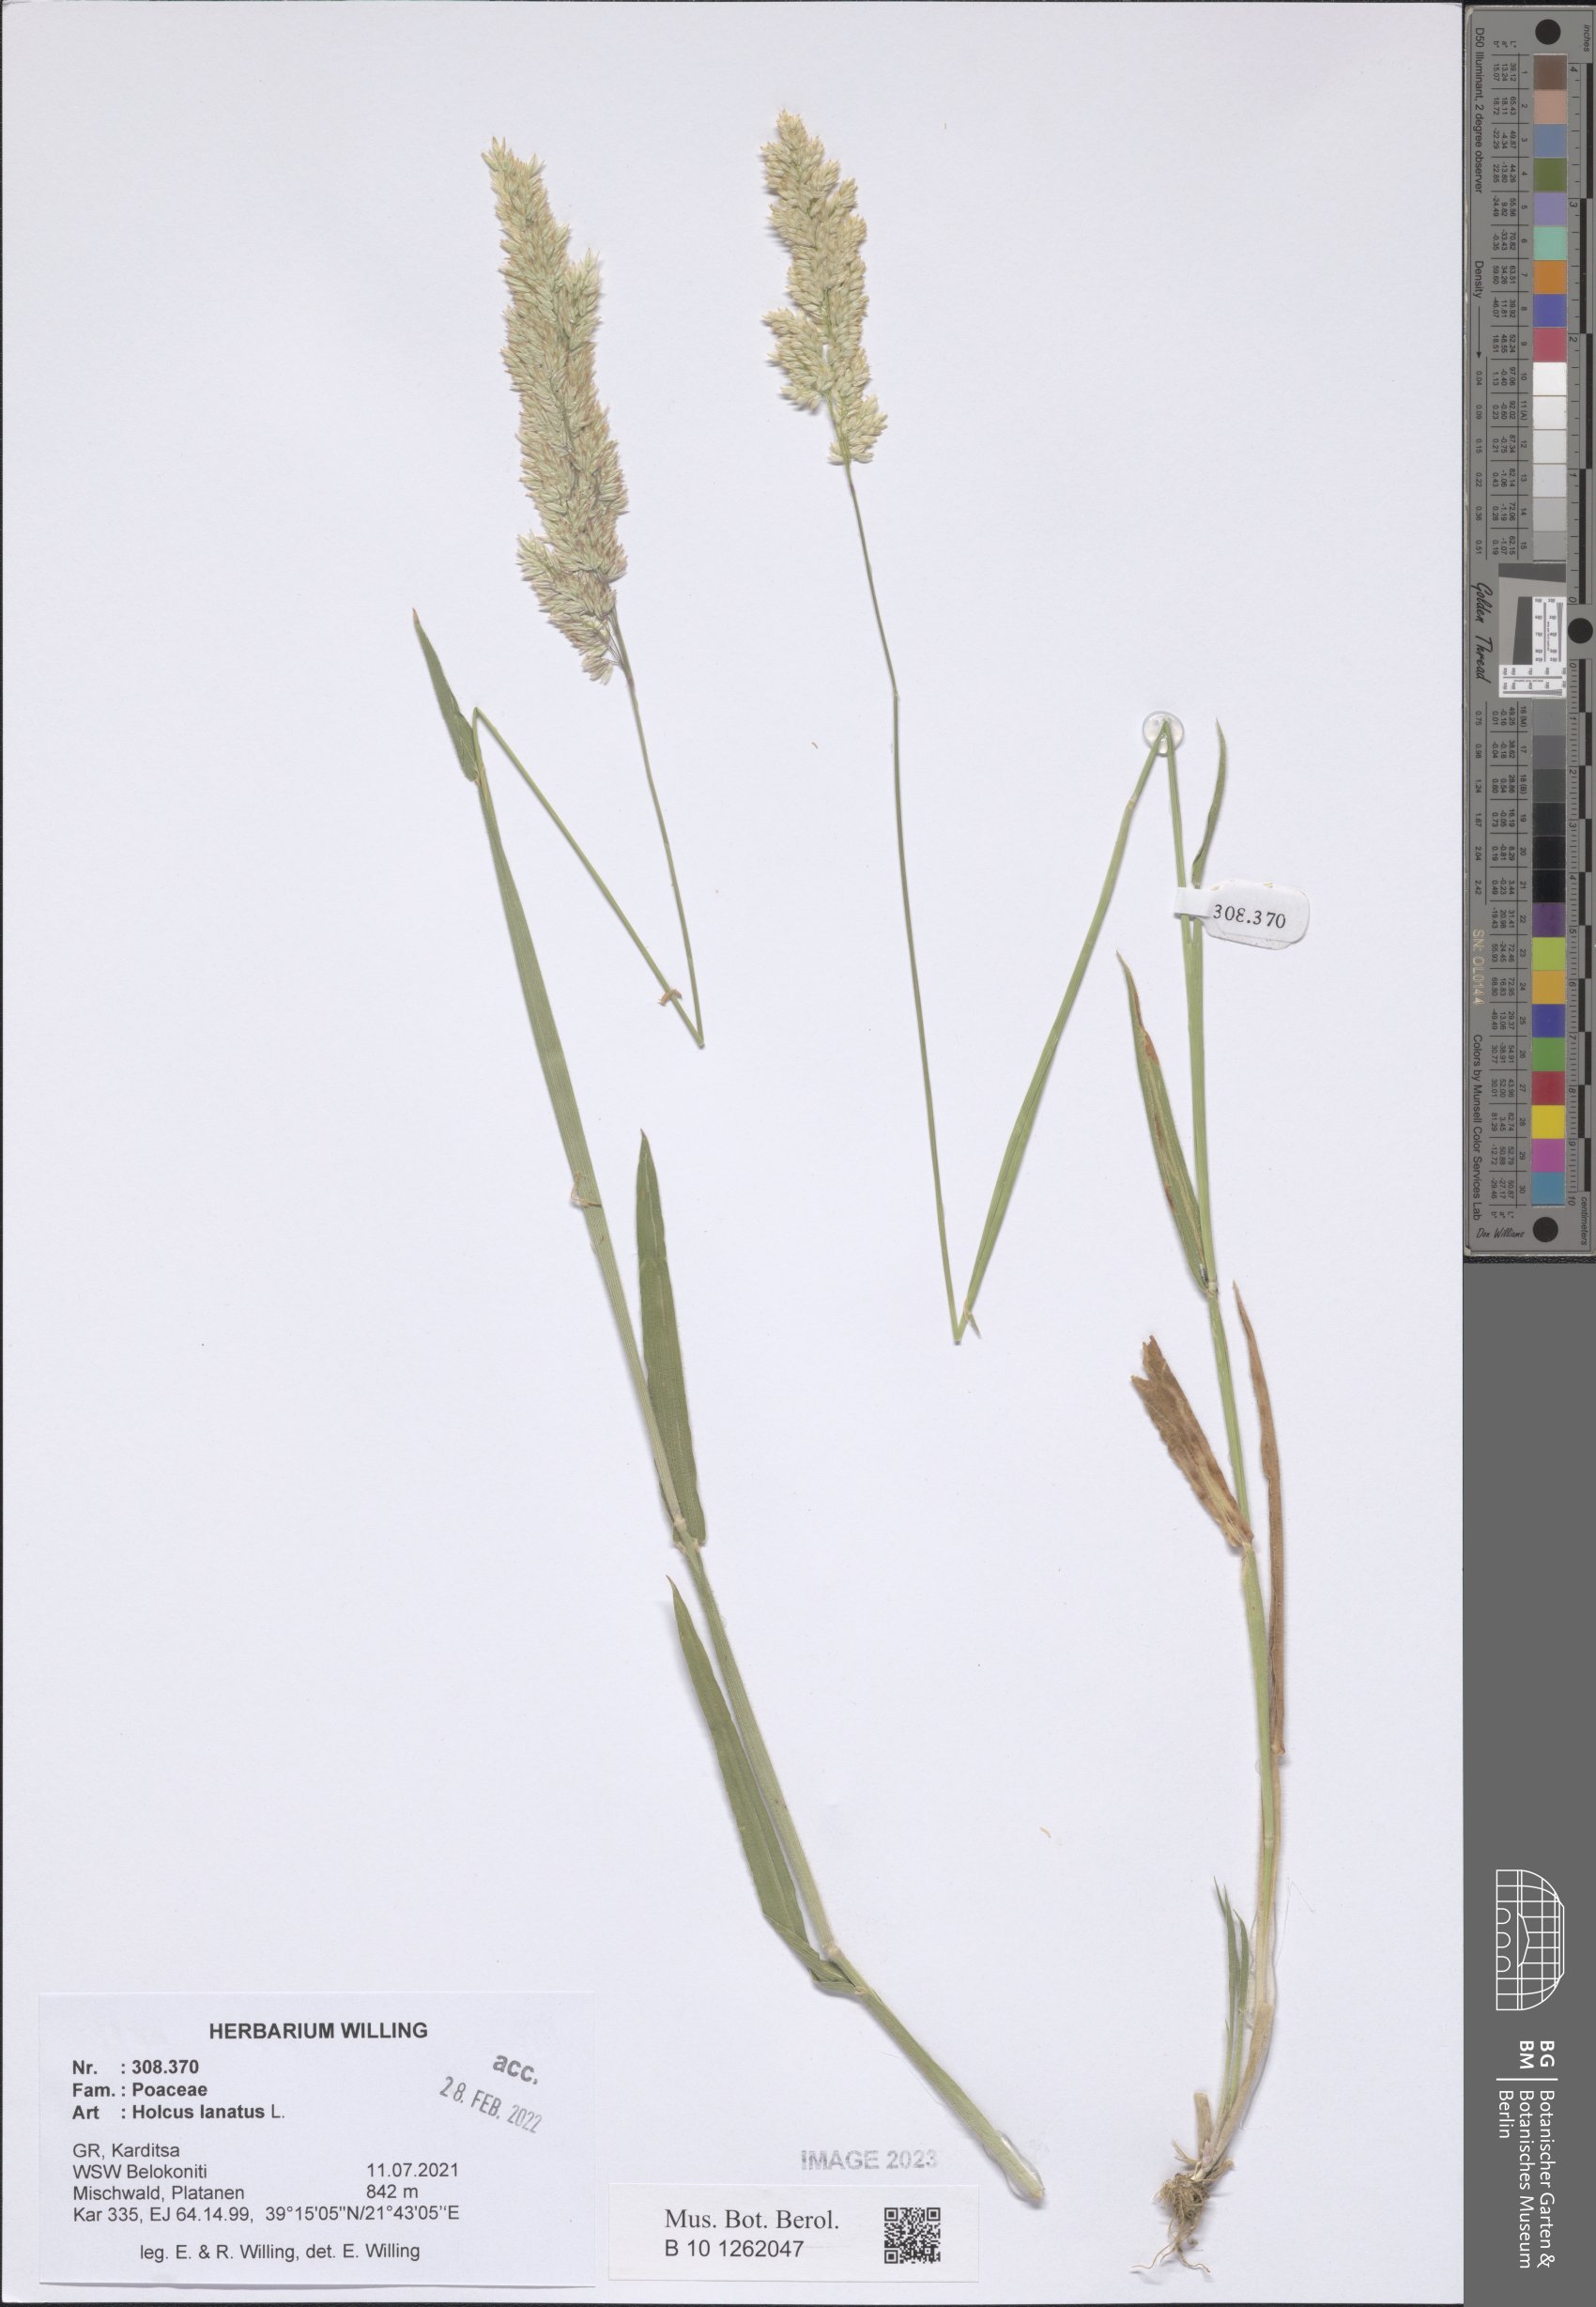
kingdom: Plantae
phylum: Tracheophyta
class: Liliopsida
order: Poales
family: Poaceae
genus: Holcus
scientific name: Holcus lanatus
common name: Yorkshire-fog
